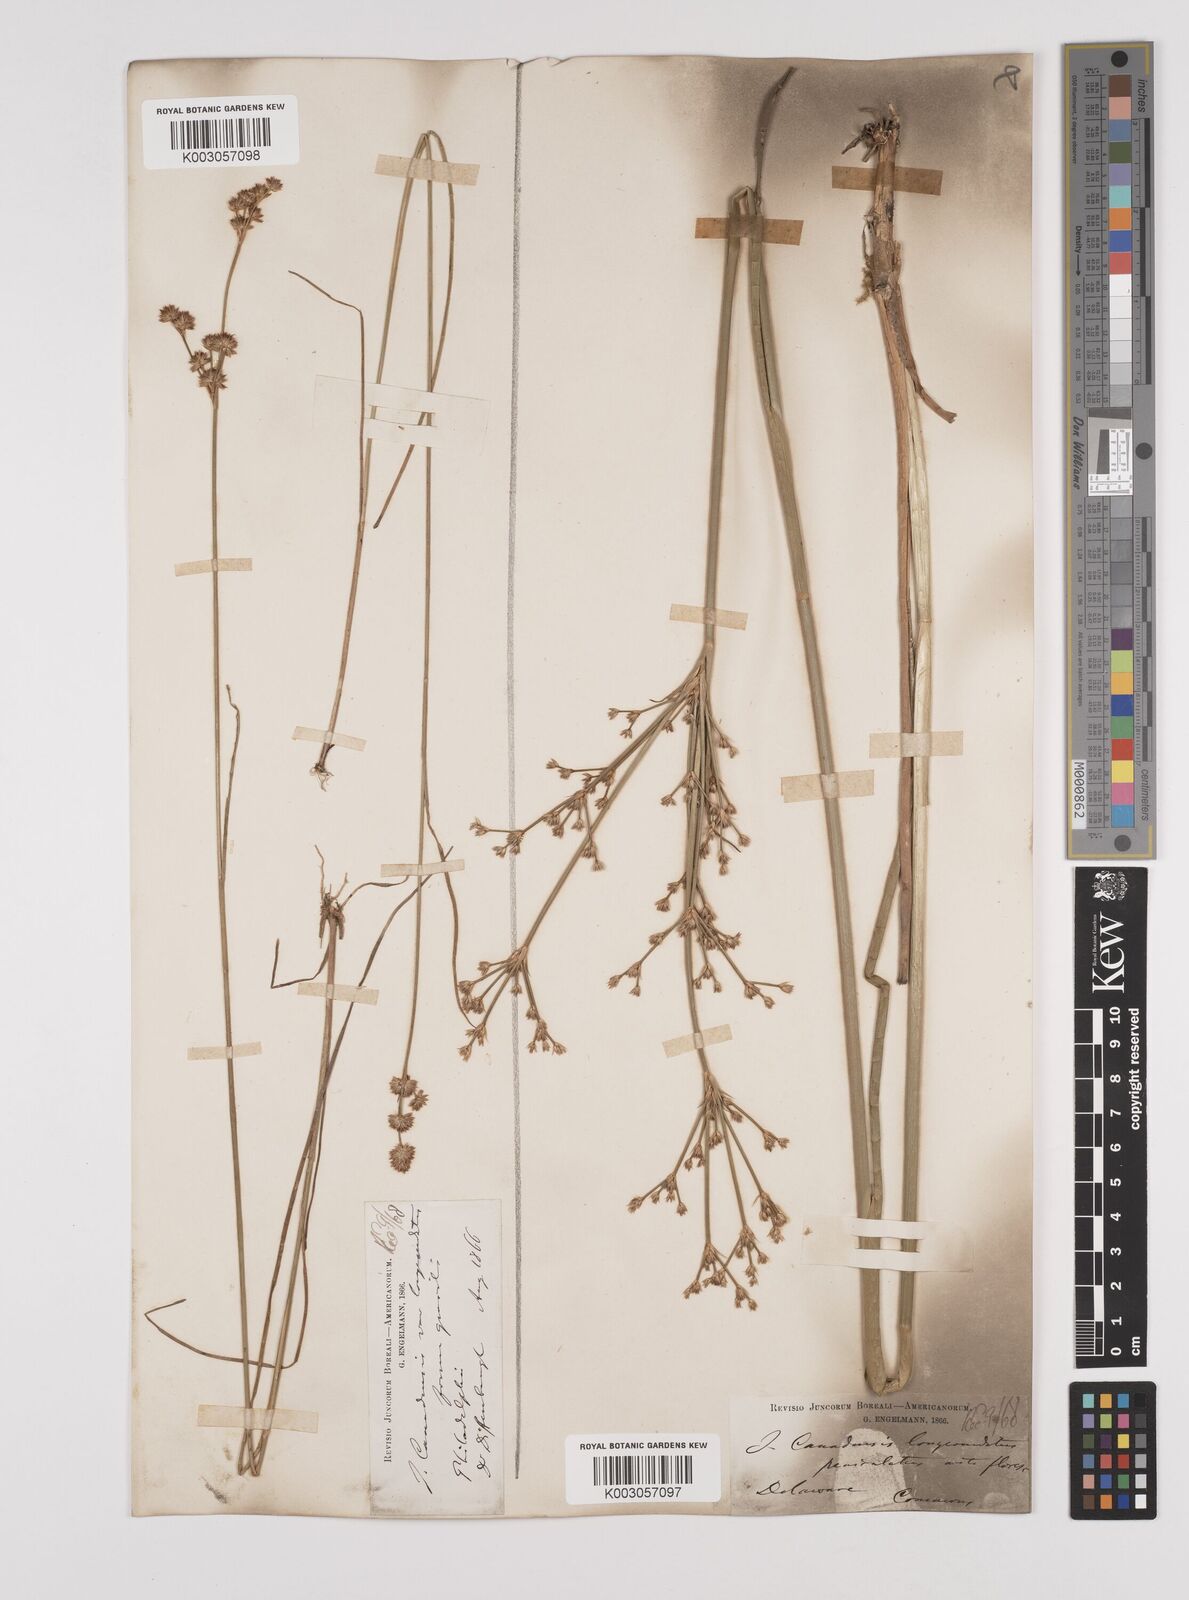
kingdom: Plantae
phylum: Tracheophyta
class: Liliopsida
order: Poales
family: Juncaceae
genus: Juncus
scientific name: Juncus canadensis
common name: Canada rush
